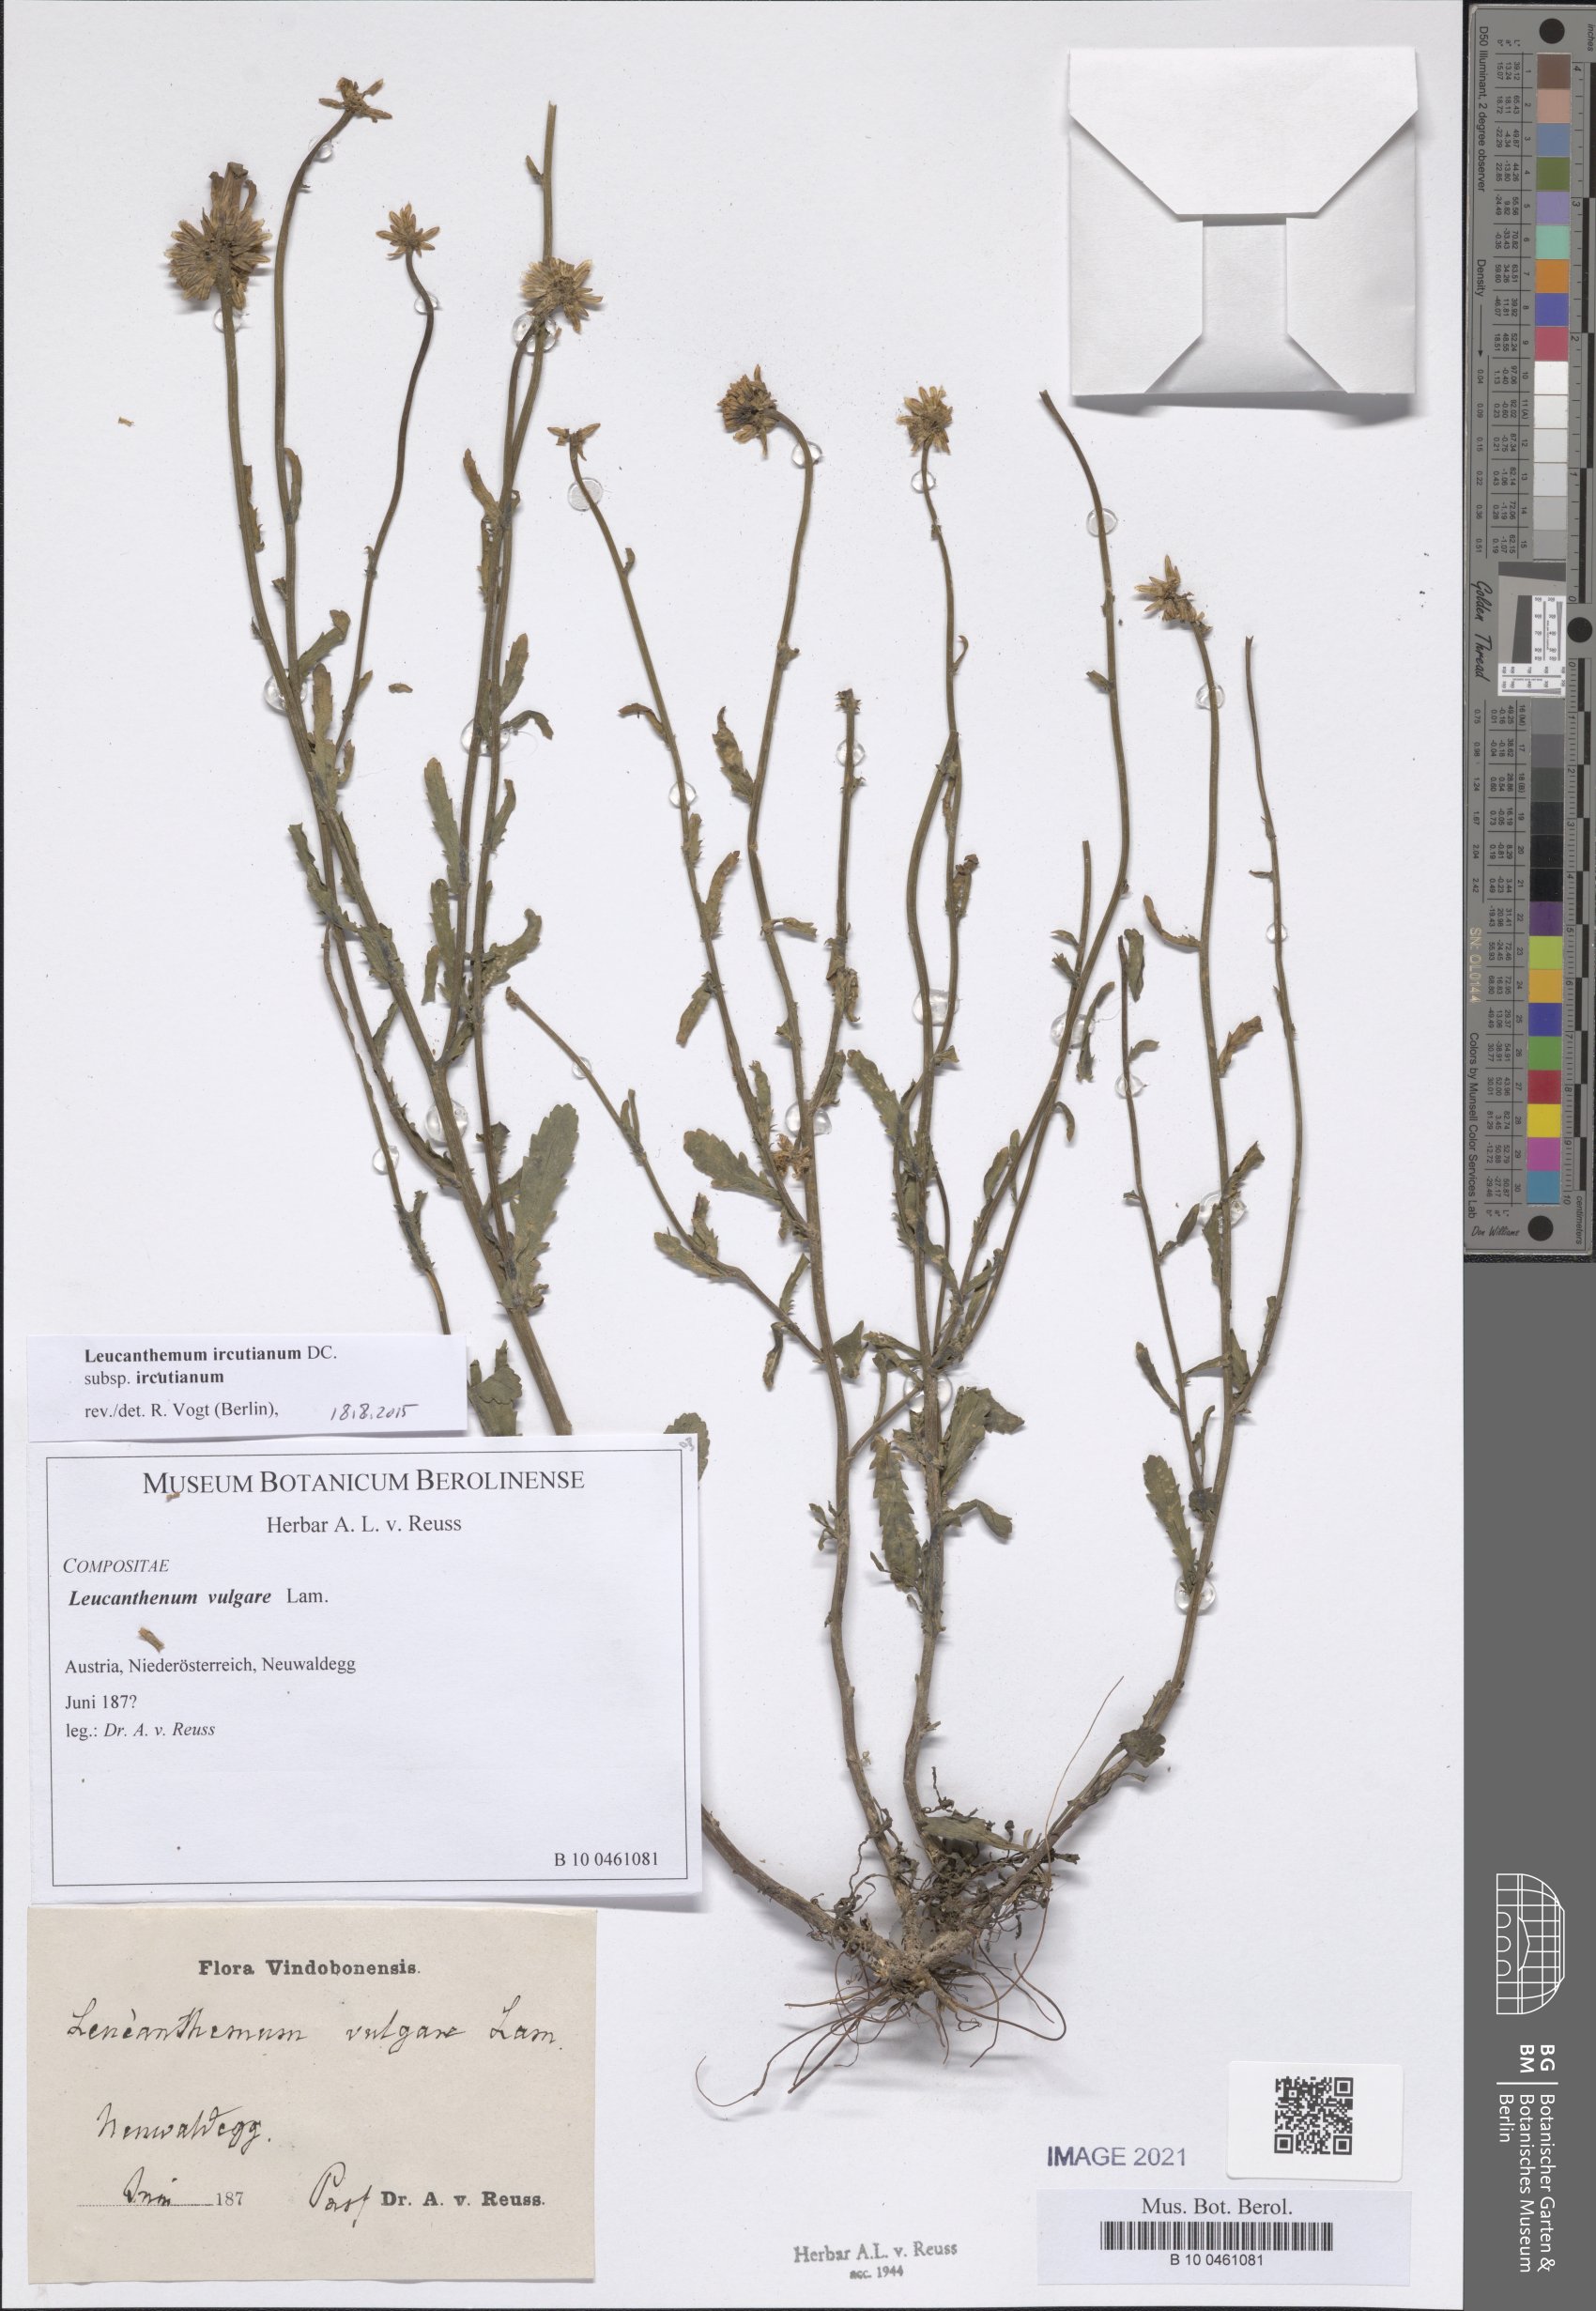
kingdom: Plantae
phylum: Tracheophyta
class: Magnoliopsida
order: Asterales
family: Asteraceae
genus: Leucanthemum
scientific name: Leucanthemum ircutianum
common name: Daisy
